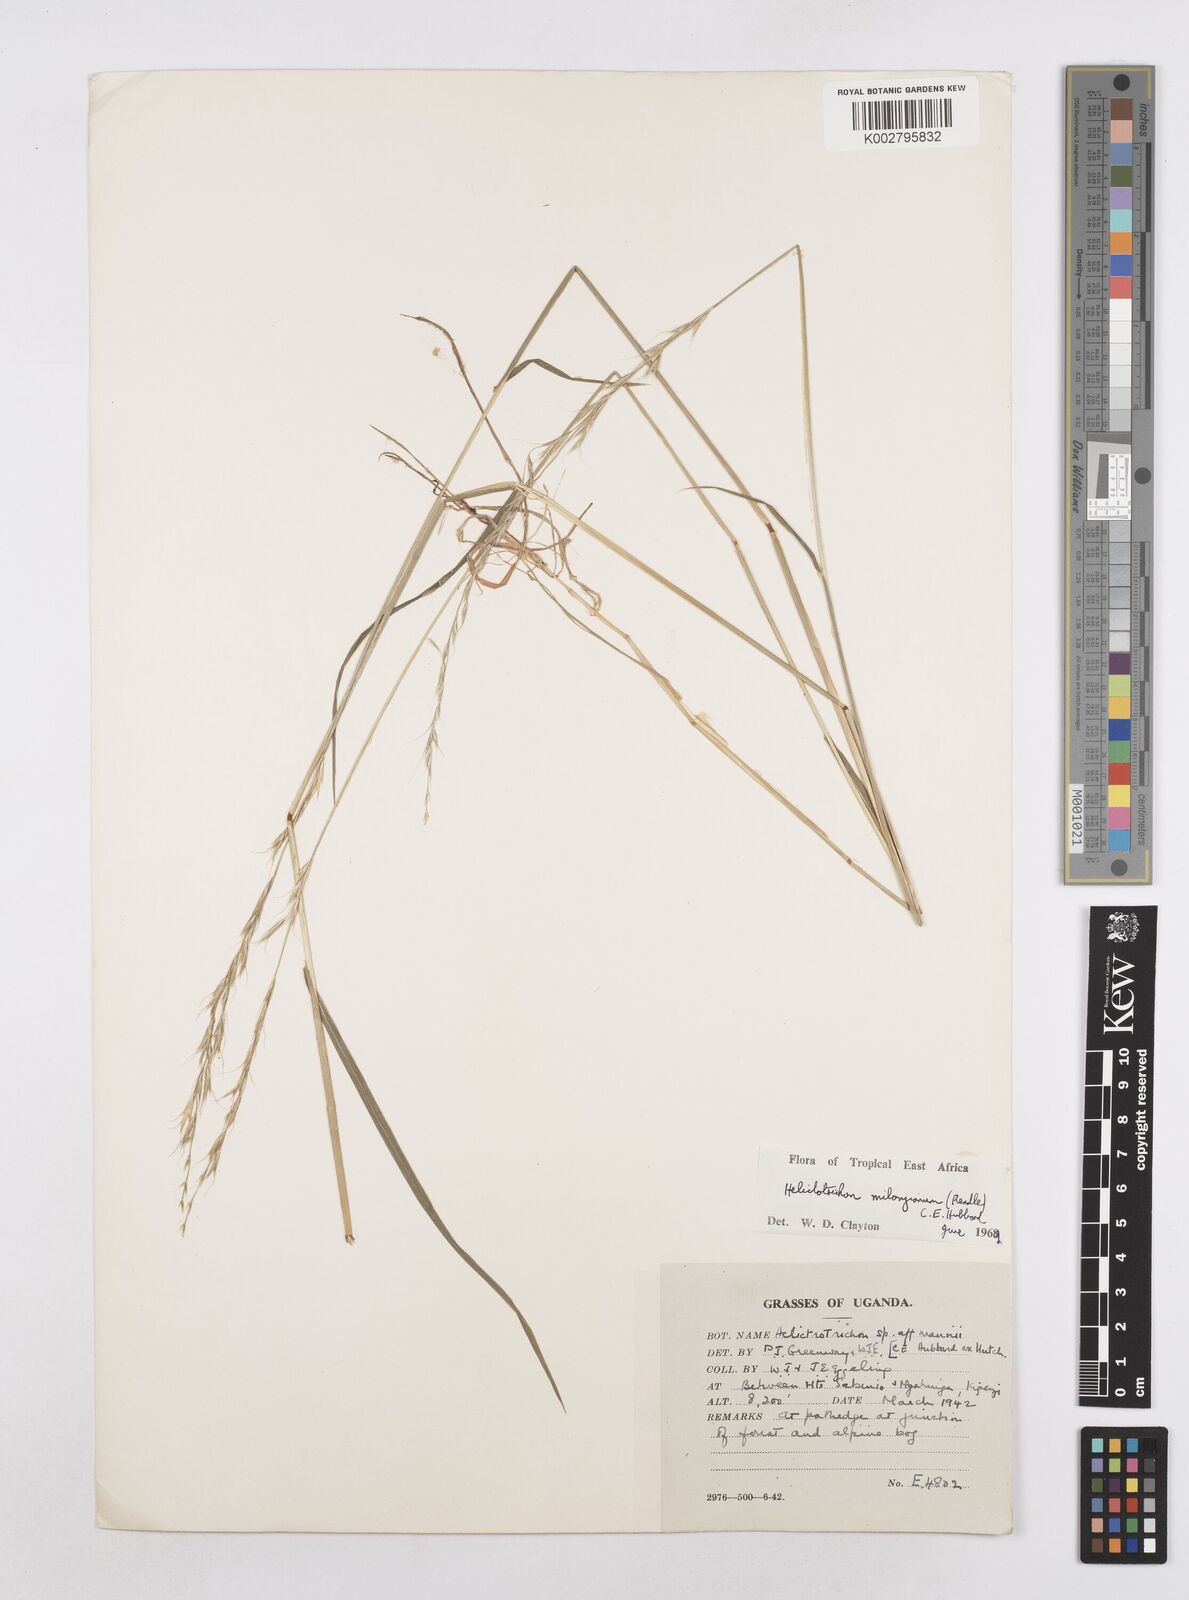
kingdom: Plantae
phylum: Tracheophyta
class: Liliopsida
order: Poales
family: Poaceae
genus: Trisetopsis
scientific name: Trisetopsis milanjiana
